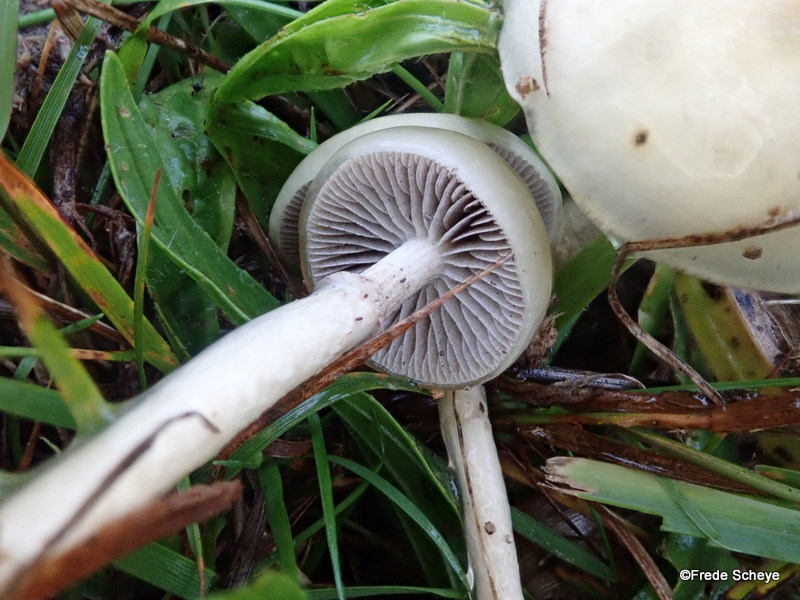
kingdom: Fungi
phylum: Basidiomycota
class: Agaricomycetes
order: Agaricales
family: Strophariaceae
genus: Protostropharia
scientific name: Protostropharia semiglobata
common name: halvkugleformet bredblad
